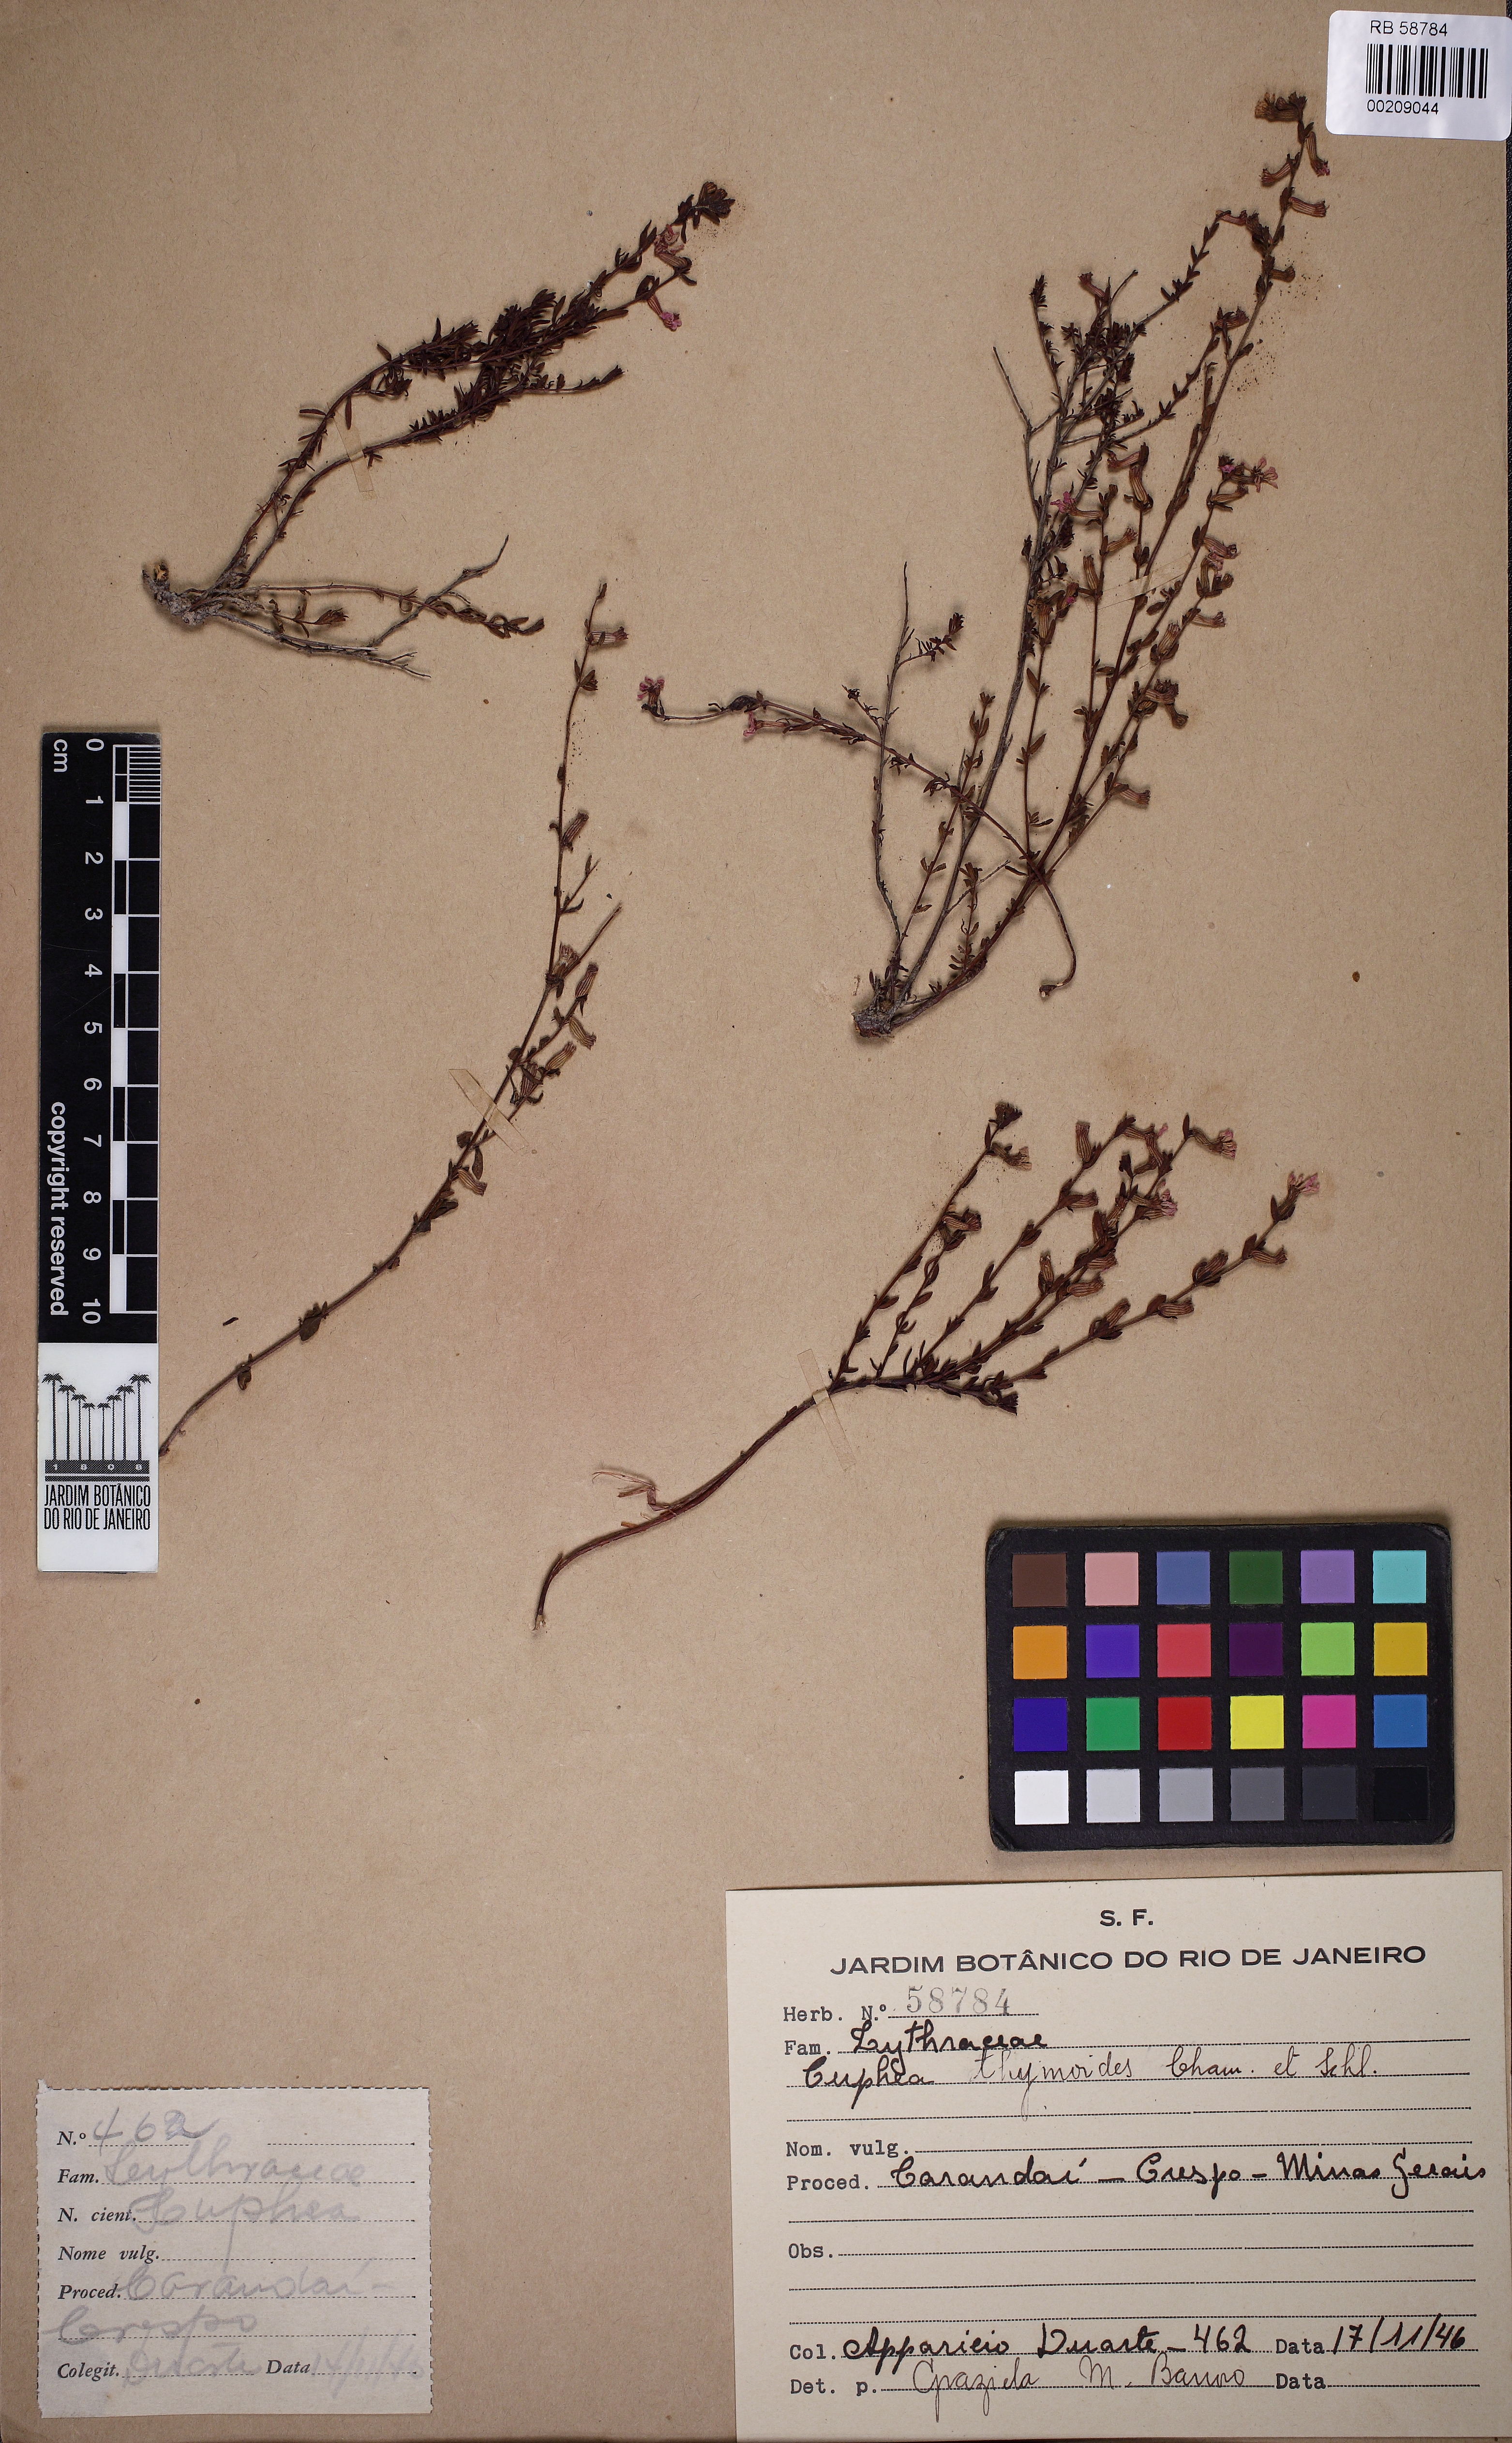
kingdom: Plantae
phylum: Tracheophyta
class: Magnoliopsida
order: Myrtales
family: Lythraceae
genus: Cuphea
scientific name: Cuphea thymoides
